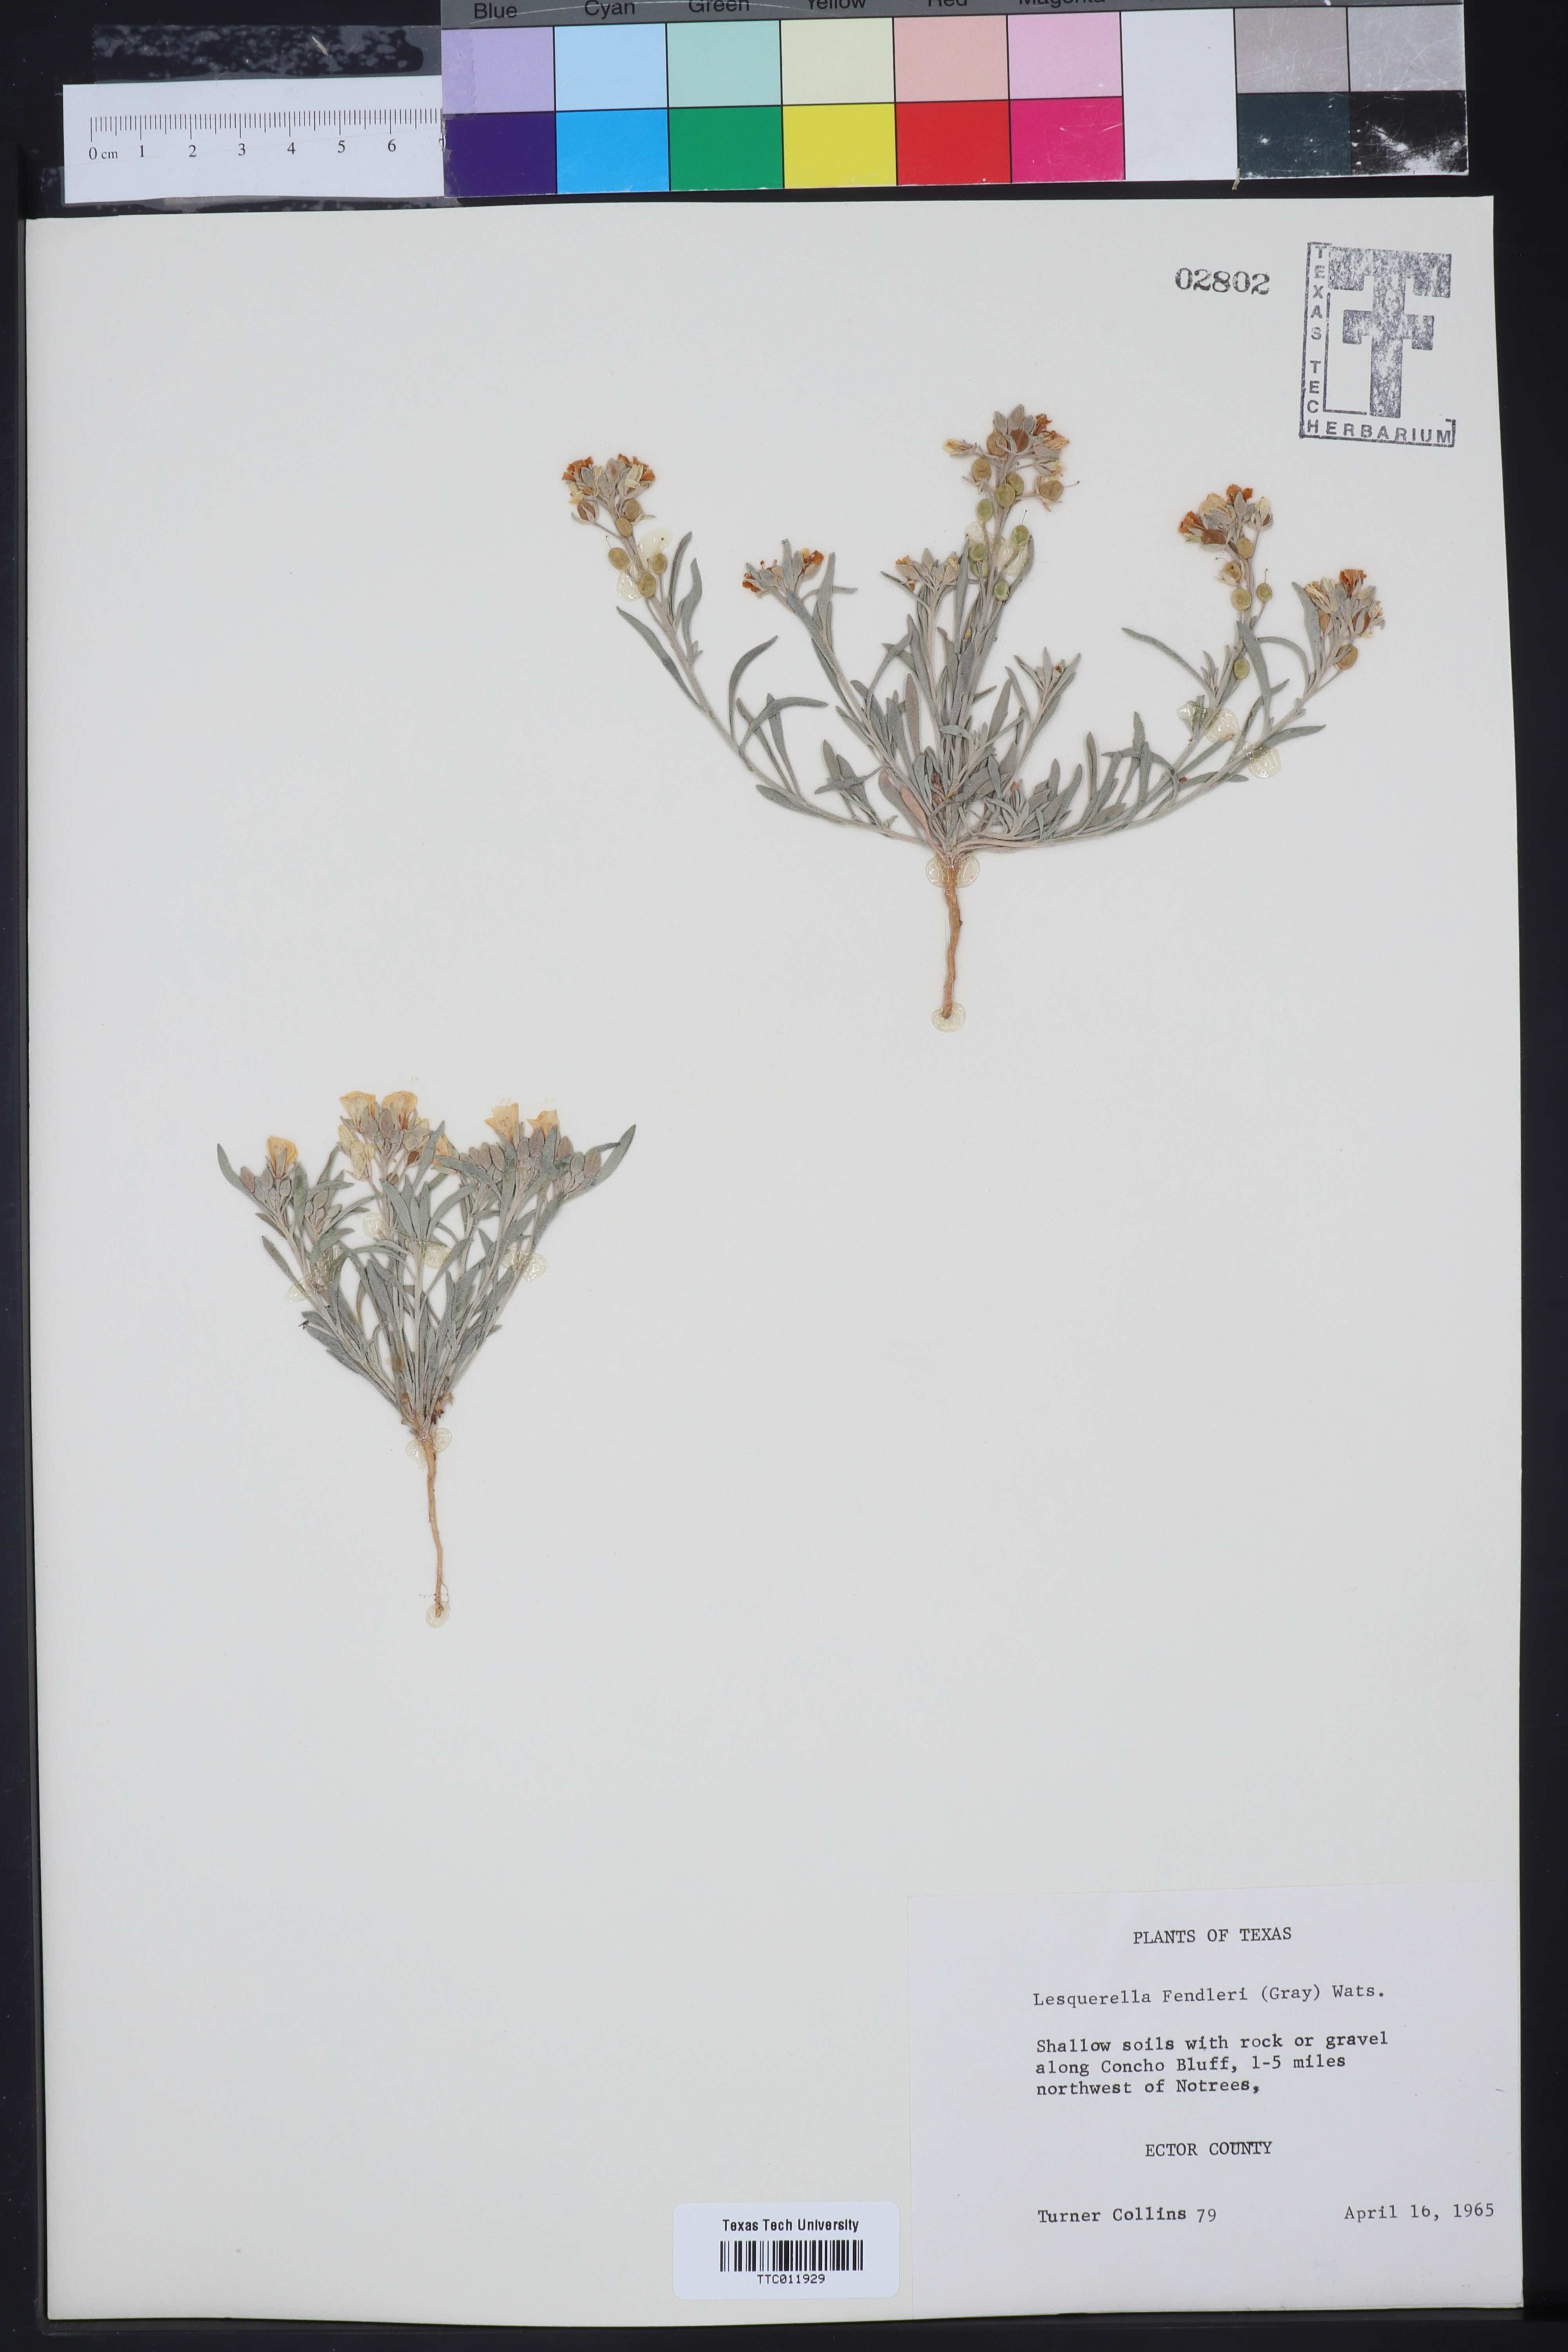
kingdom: Plantae
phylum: Tracheophyta
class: Magnoliopsida
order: Brassicales
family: Brassicaceae
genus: Physaria
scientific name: Physaria fendleri
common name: Fendler's bladderpod
